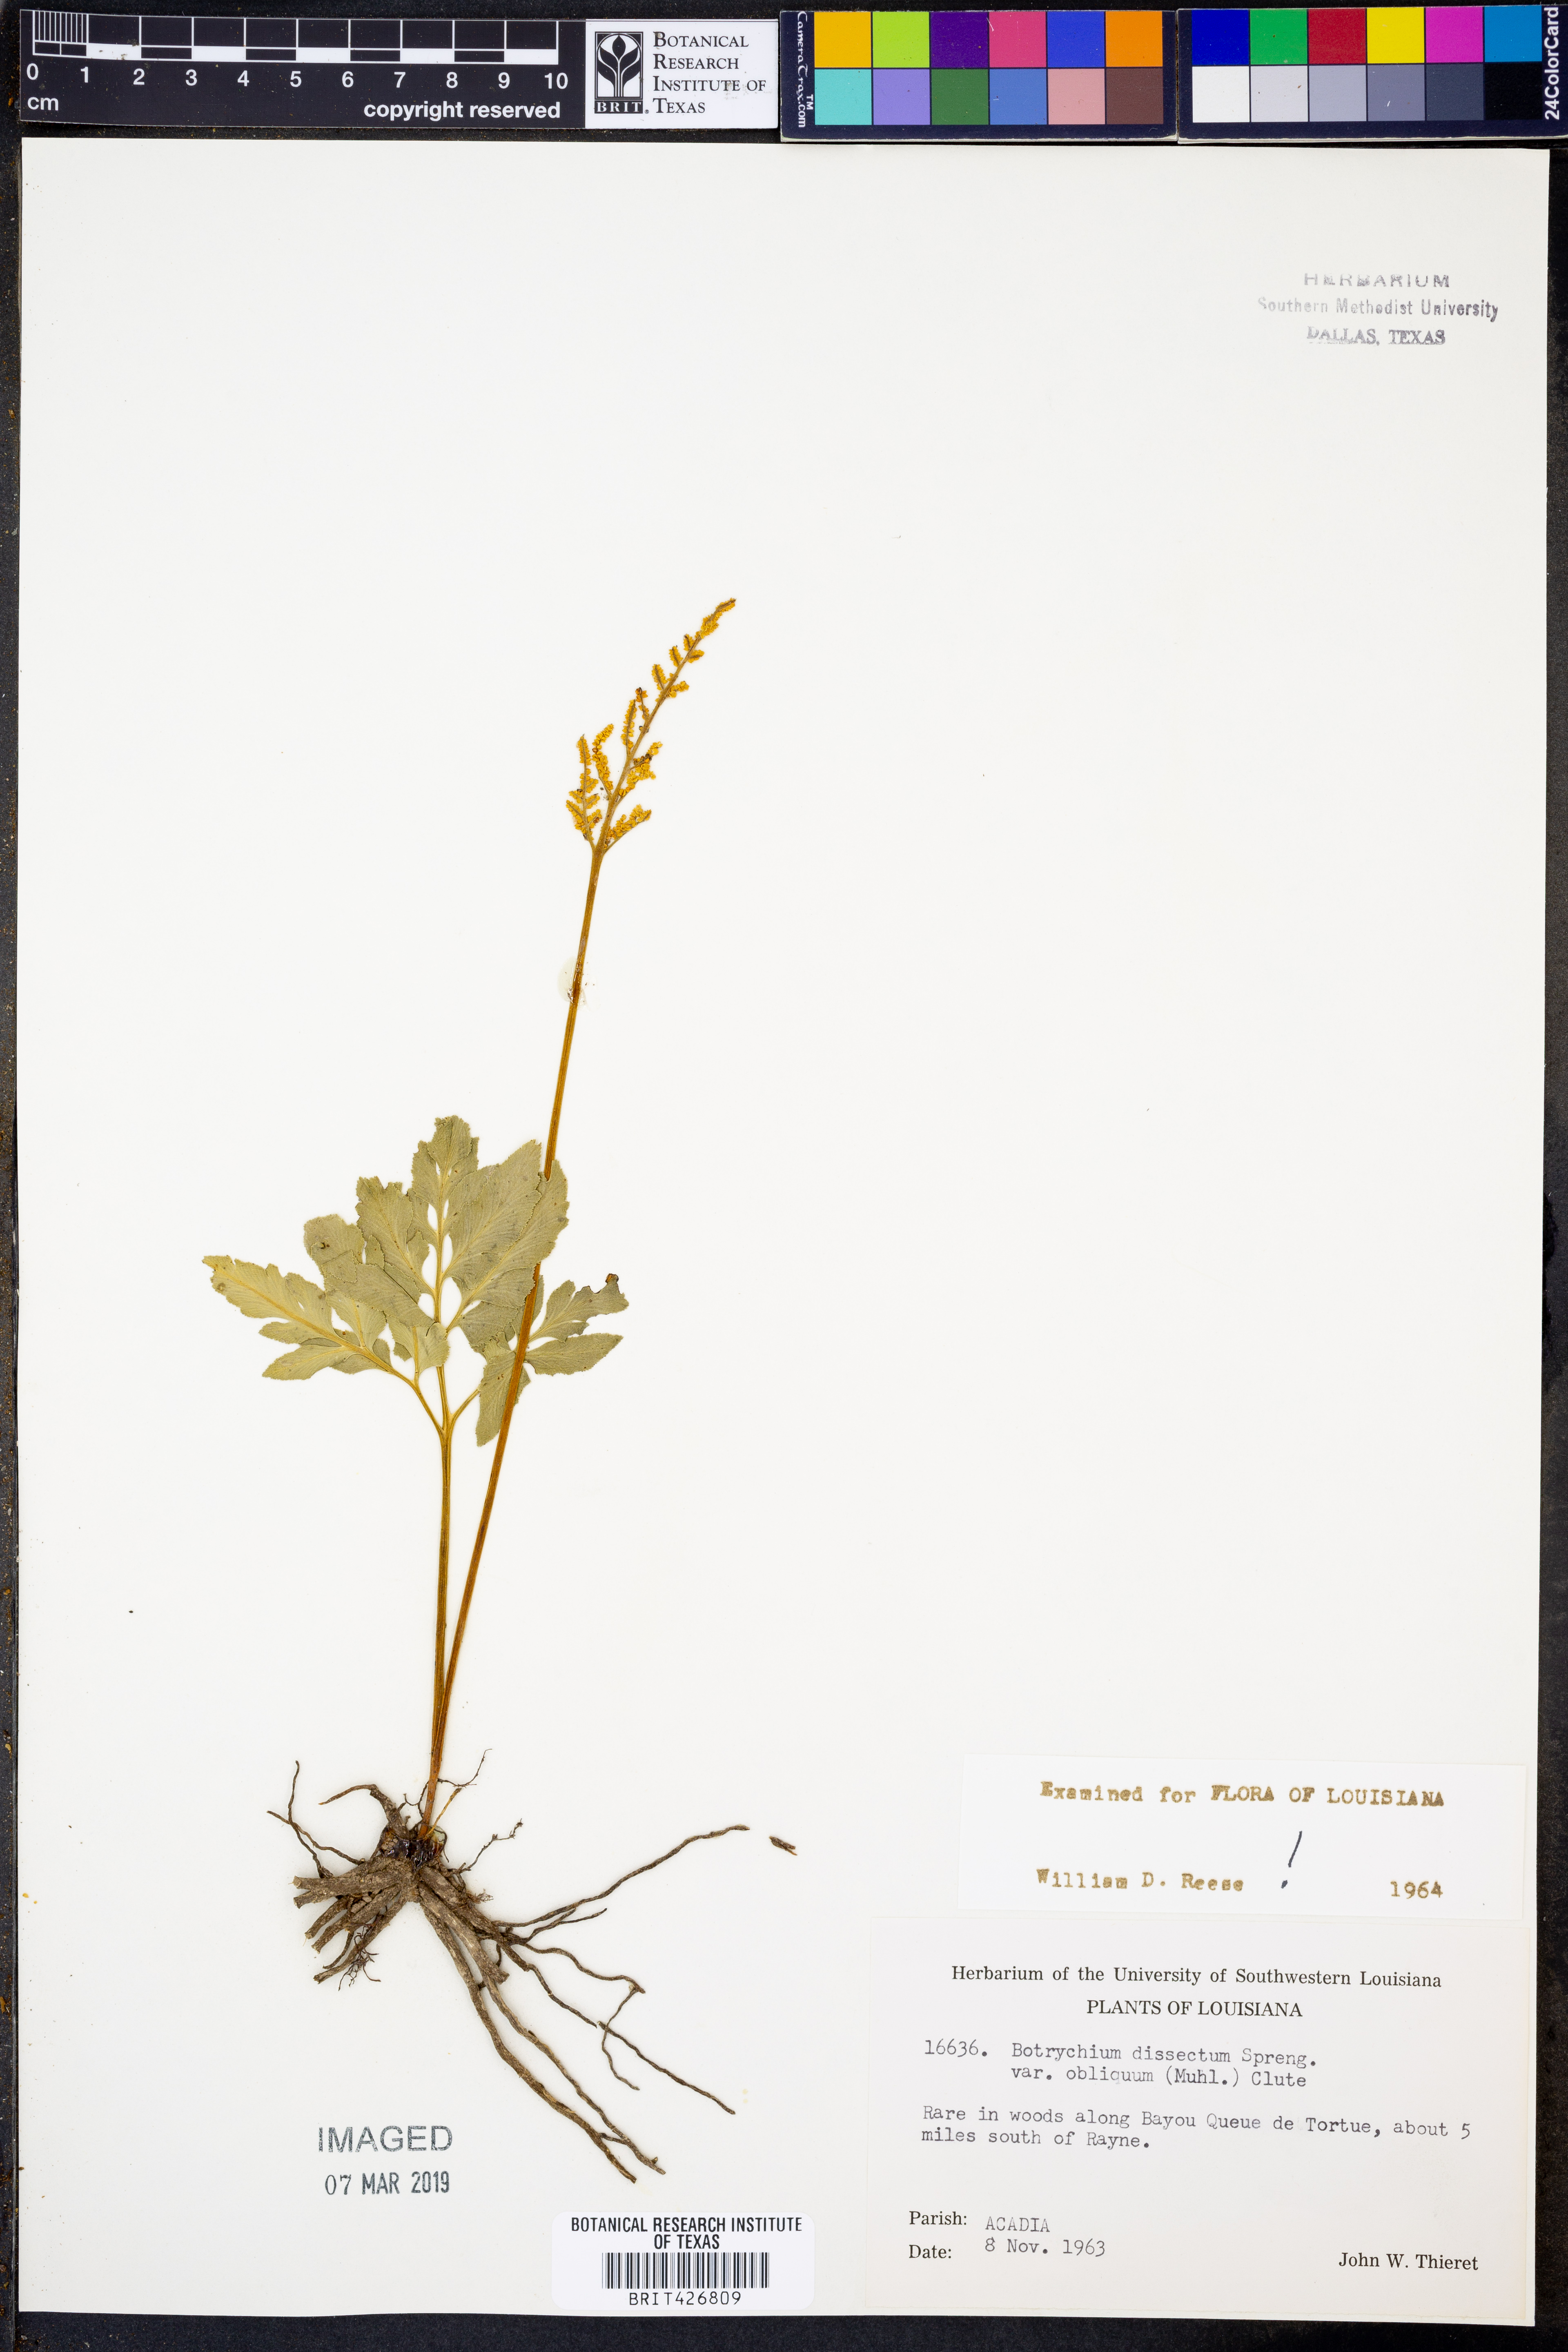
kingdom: Plantae
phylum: Tracheophyta
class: Polypodiopsida
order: Ophioglossales
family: Ophioglossaceae
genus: Sceptridium
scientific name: Sceptridium dissectum
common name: Cut-leaved grapefern
